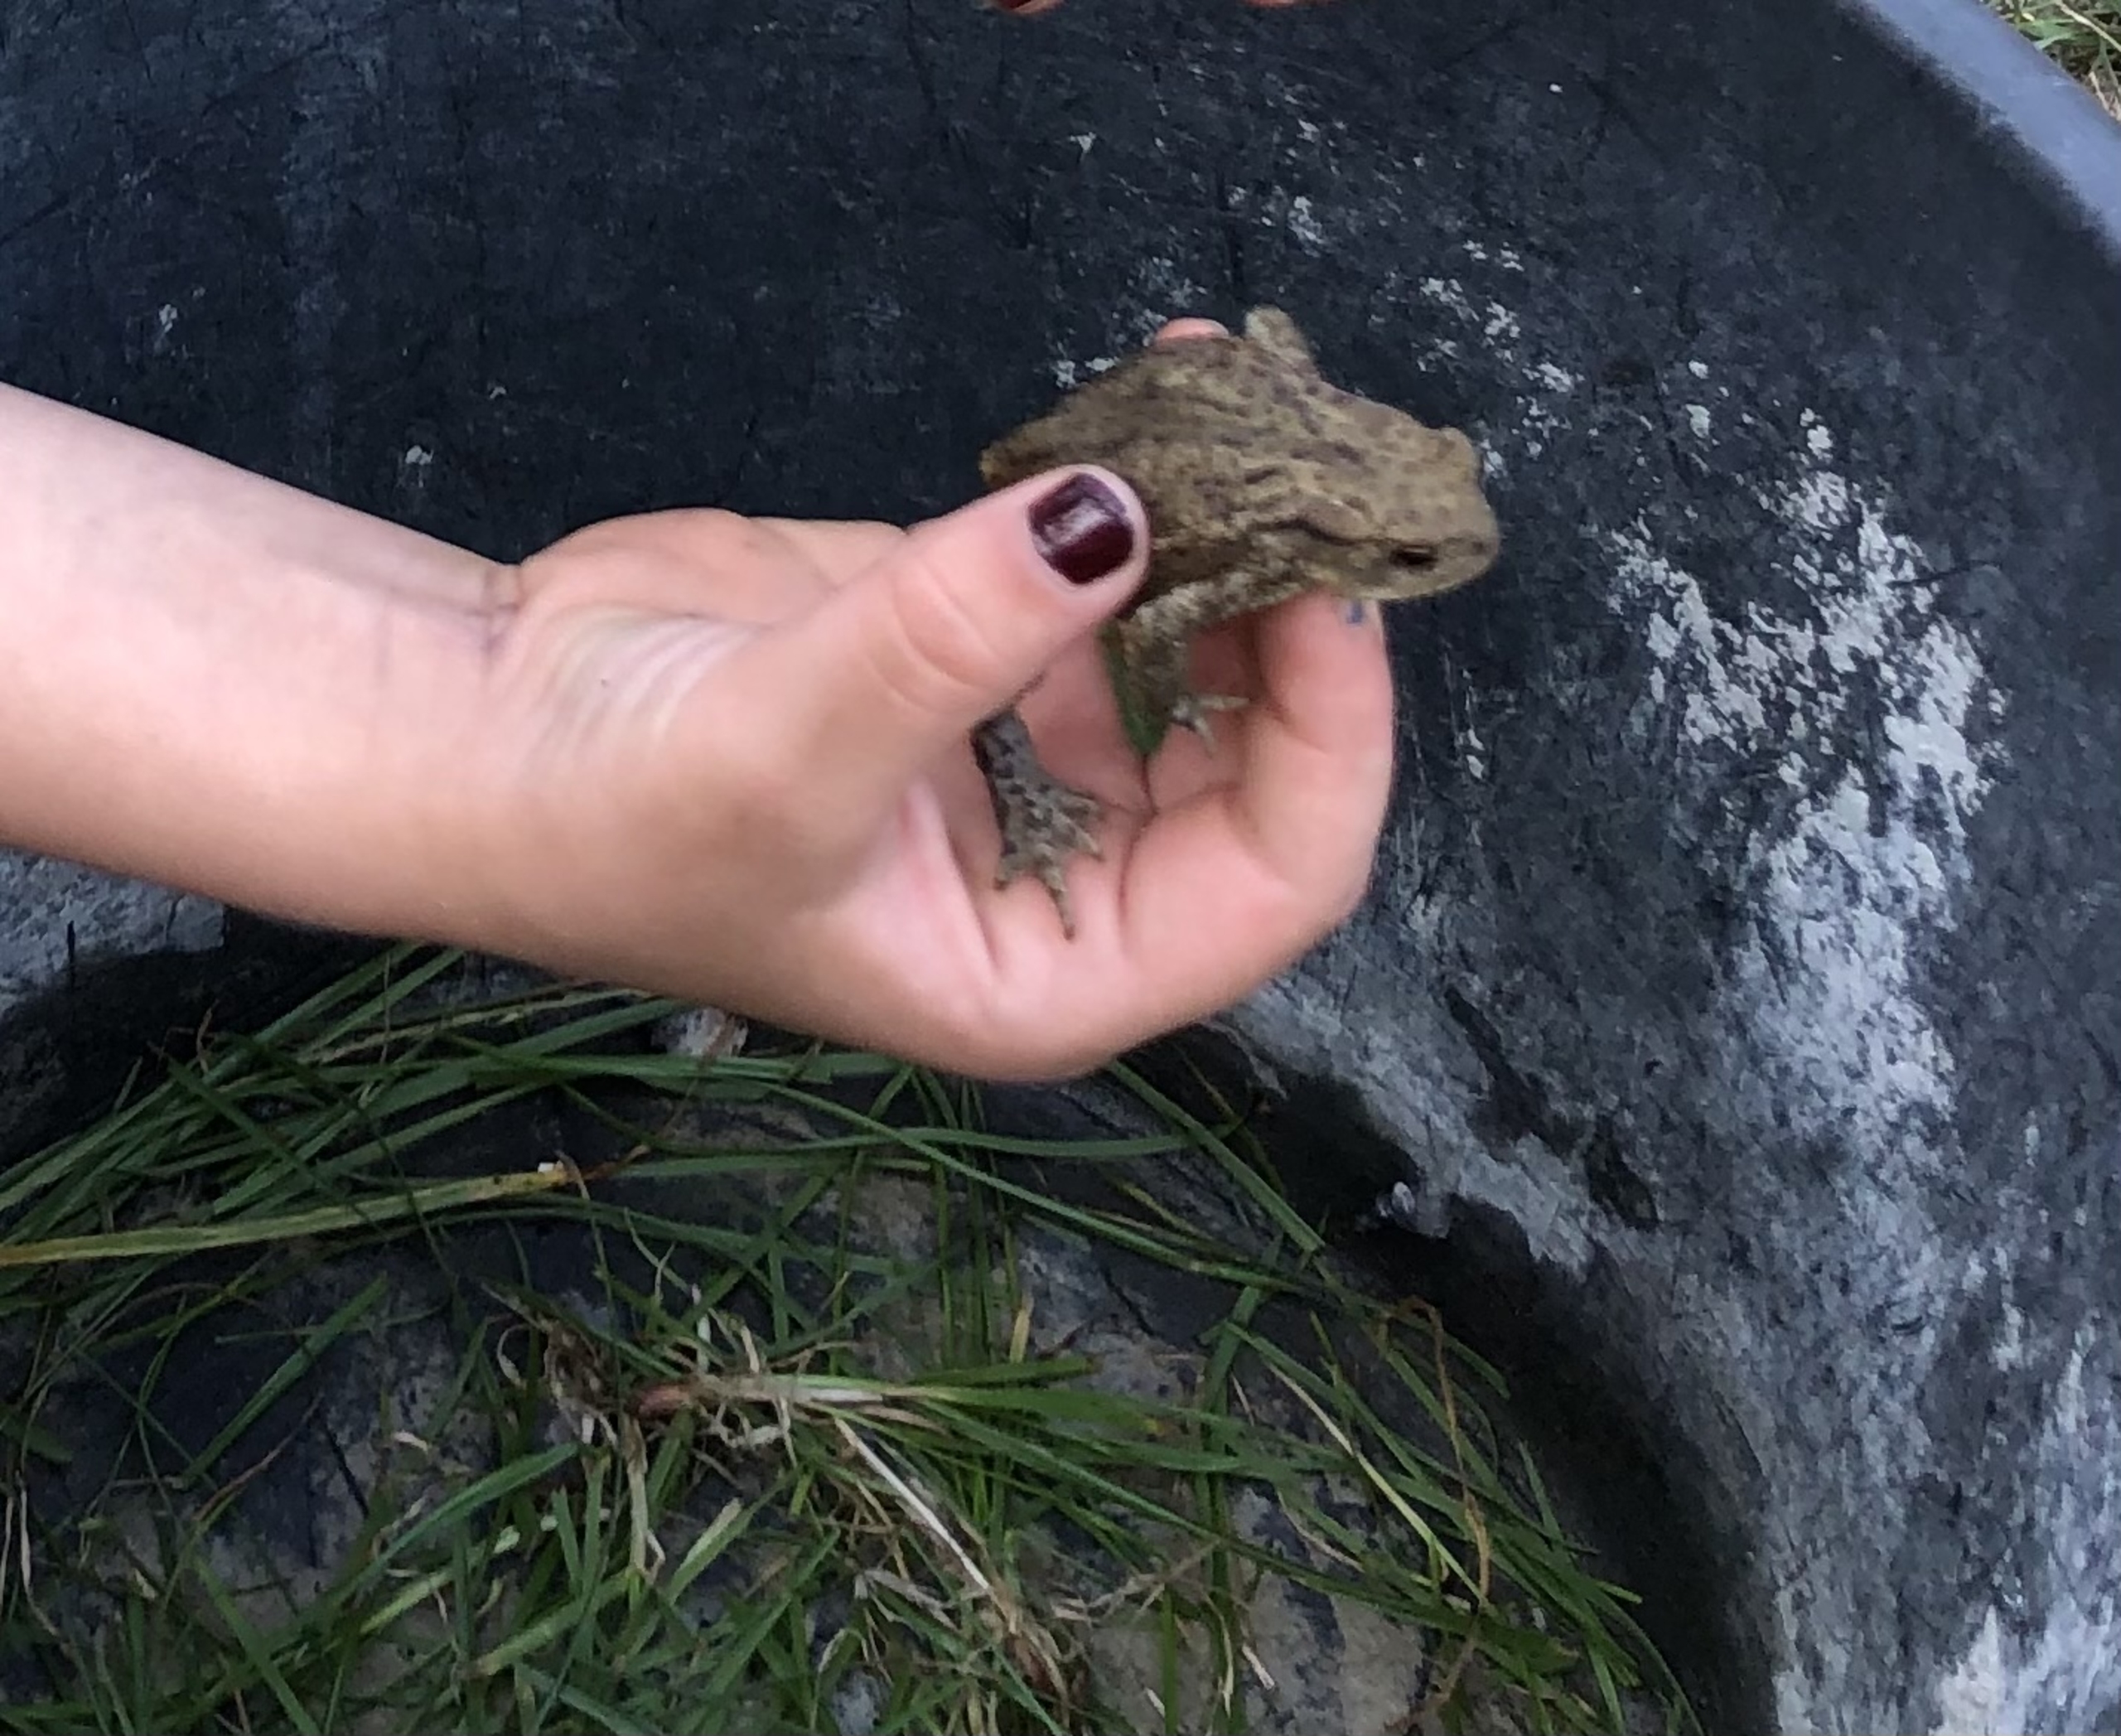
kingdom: Animalia
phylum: Chordata
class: Amphibia
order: Anura
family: Bufonidae
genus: Bufo
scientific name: Bufo bufo
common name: Skrubtudse
